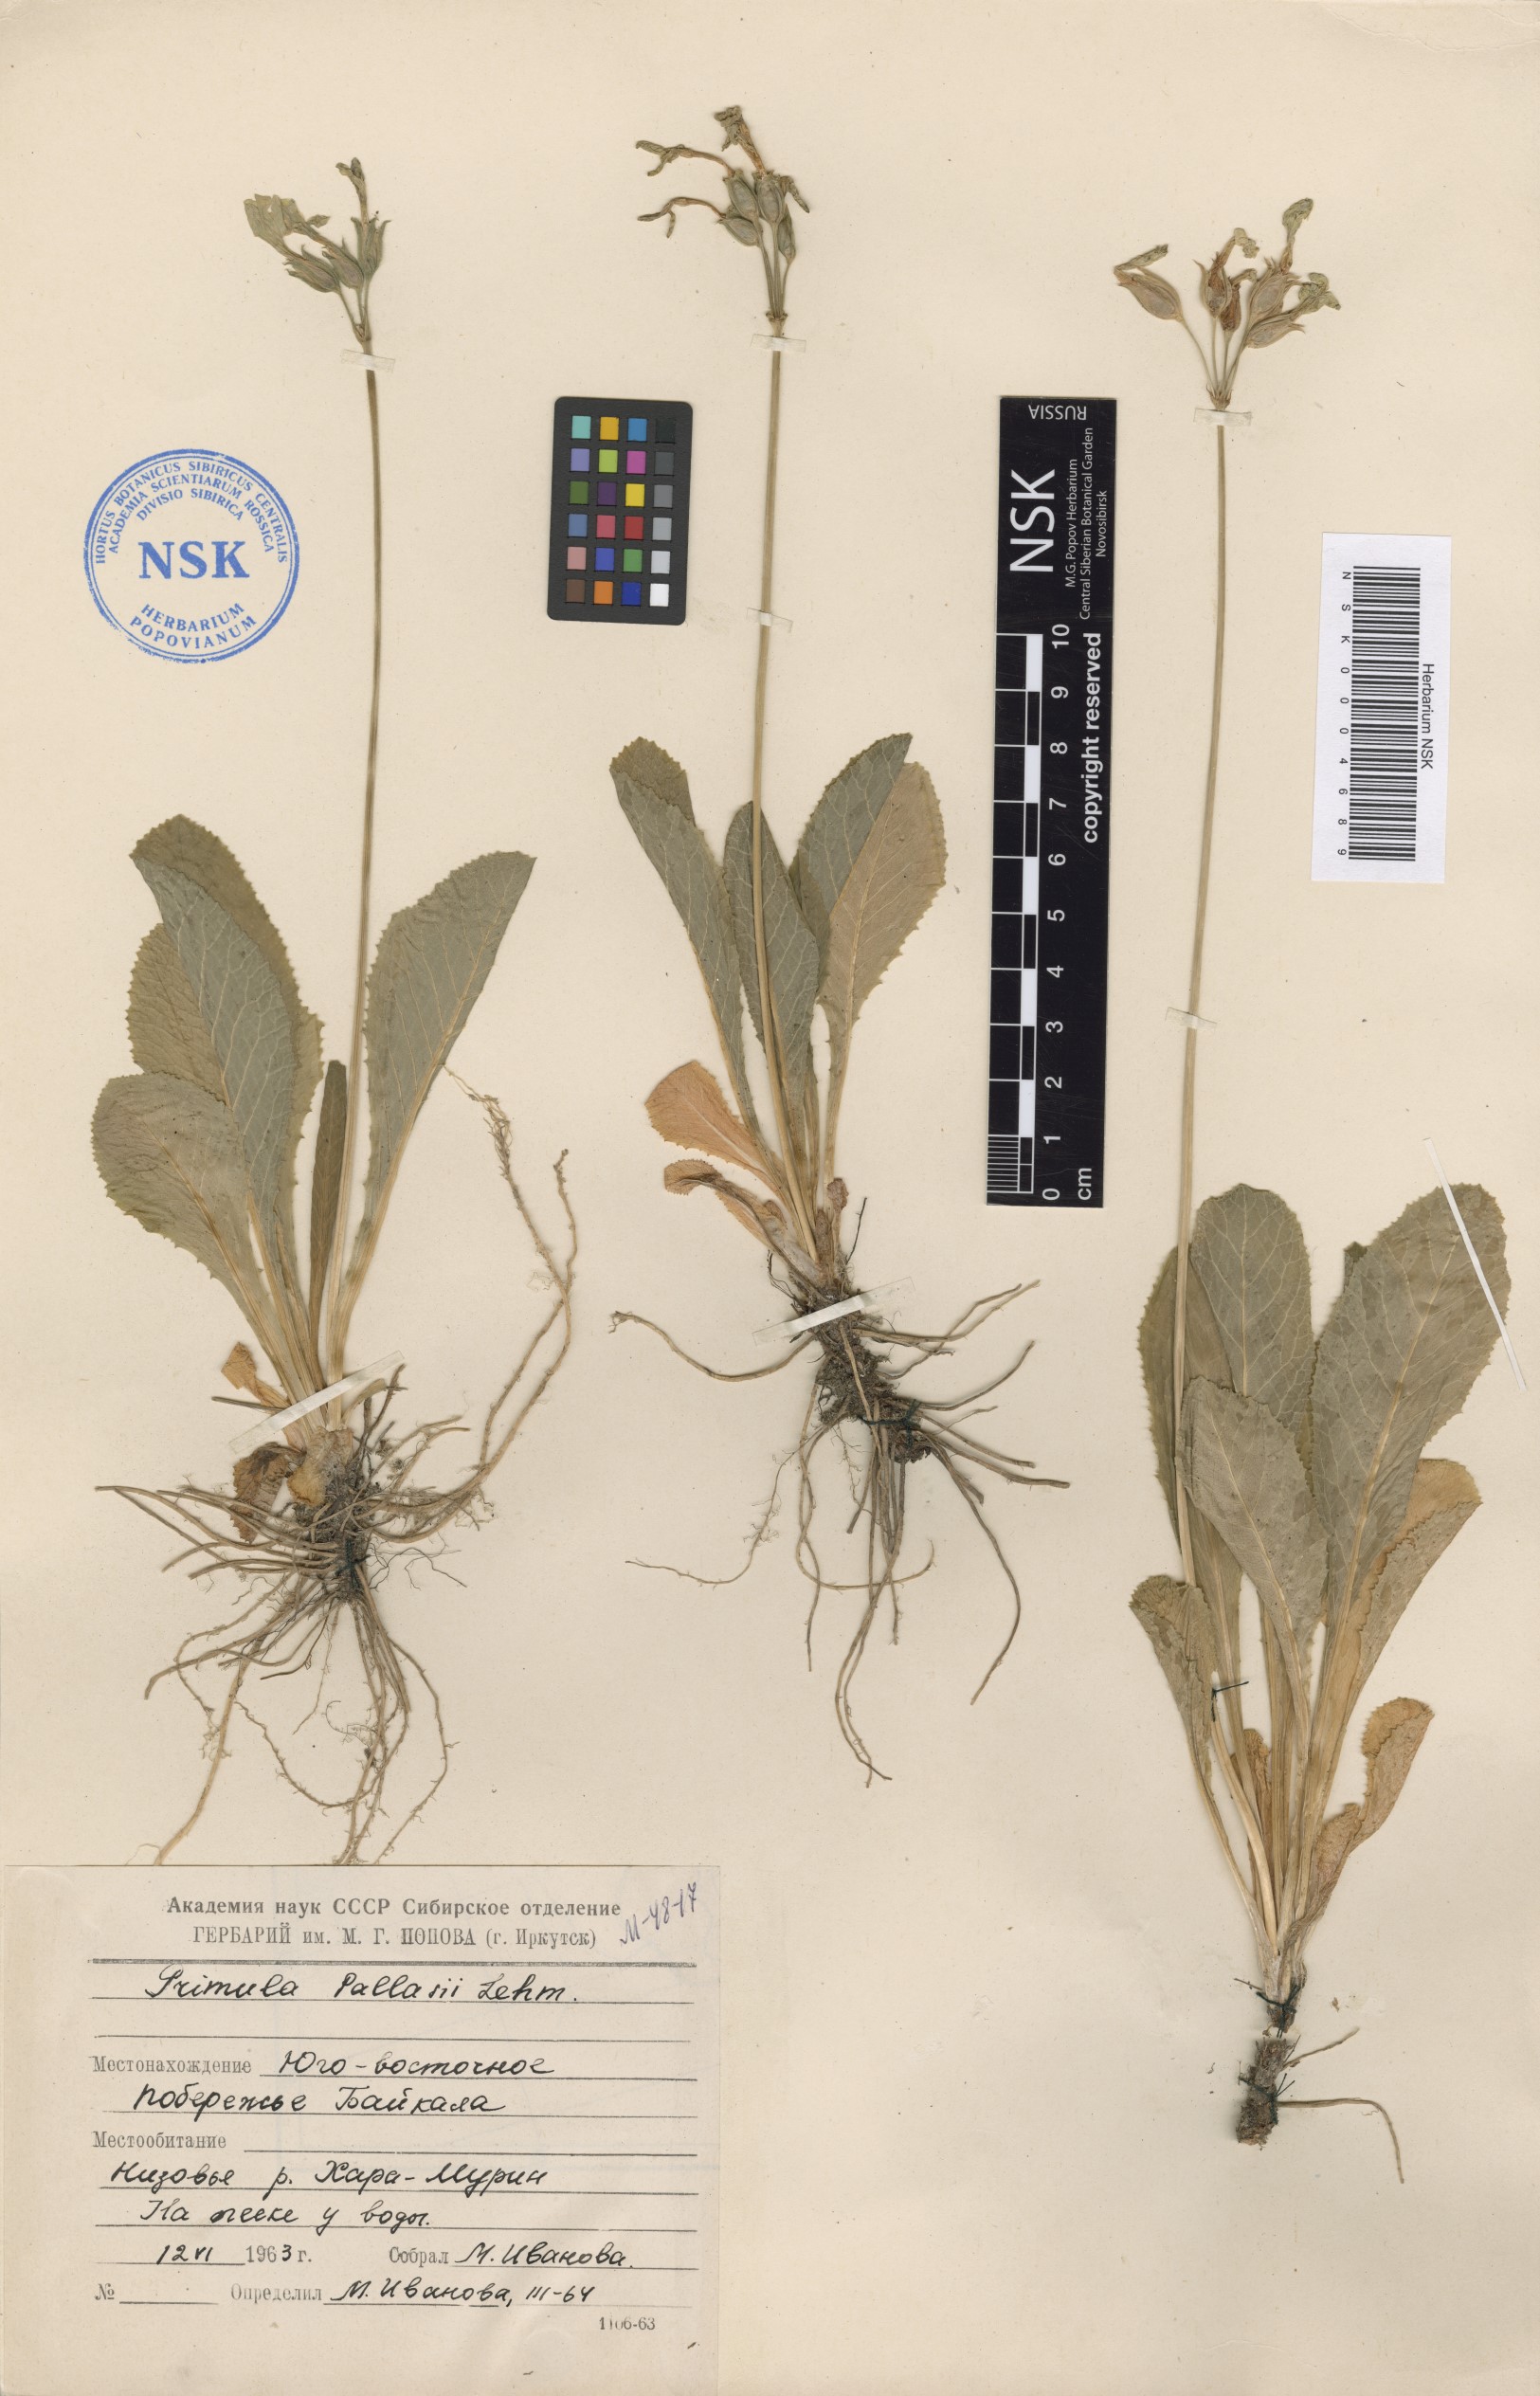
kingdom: Plantae
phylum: Tracheophyta
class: Magnoliopsida
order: Ericales
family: Primulaceae
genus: Primula
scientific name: Primula elatior
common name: Oxlip
